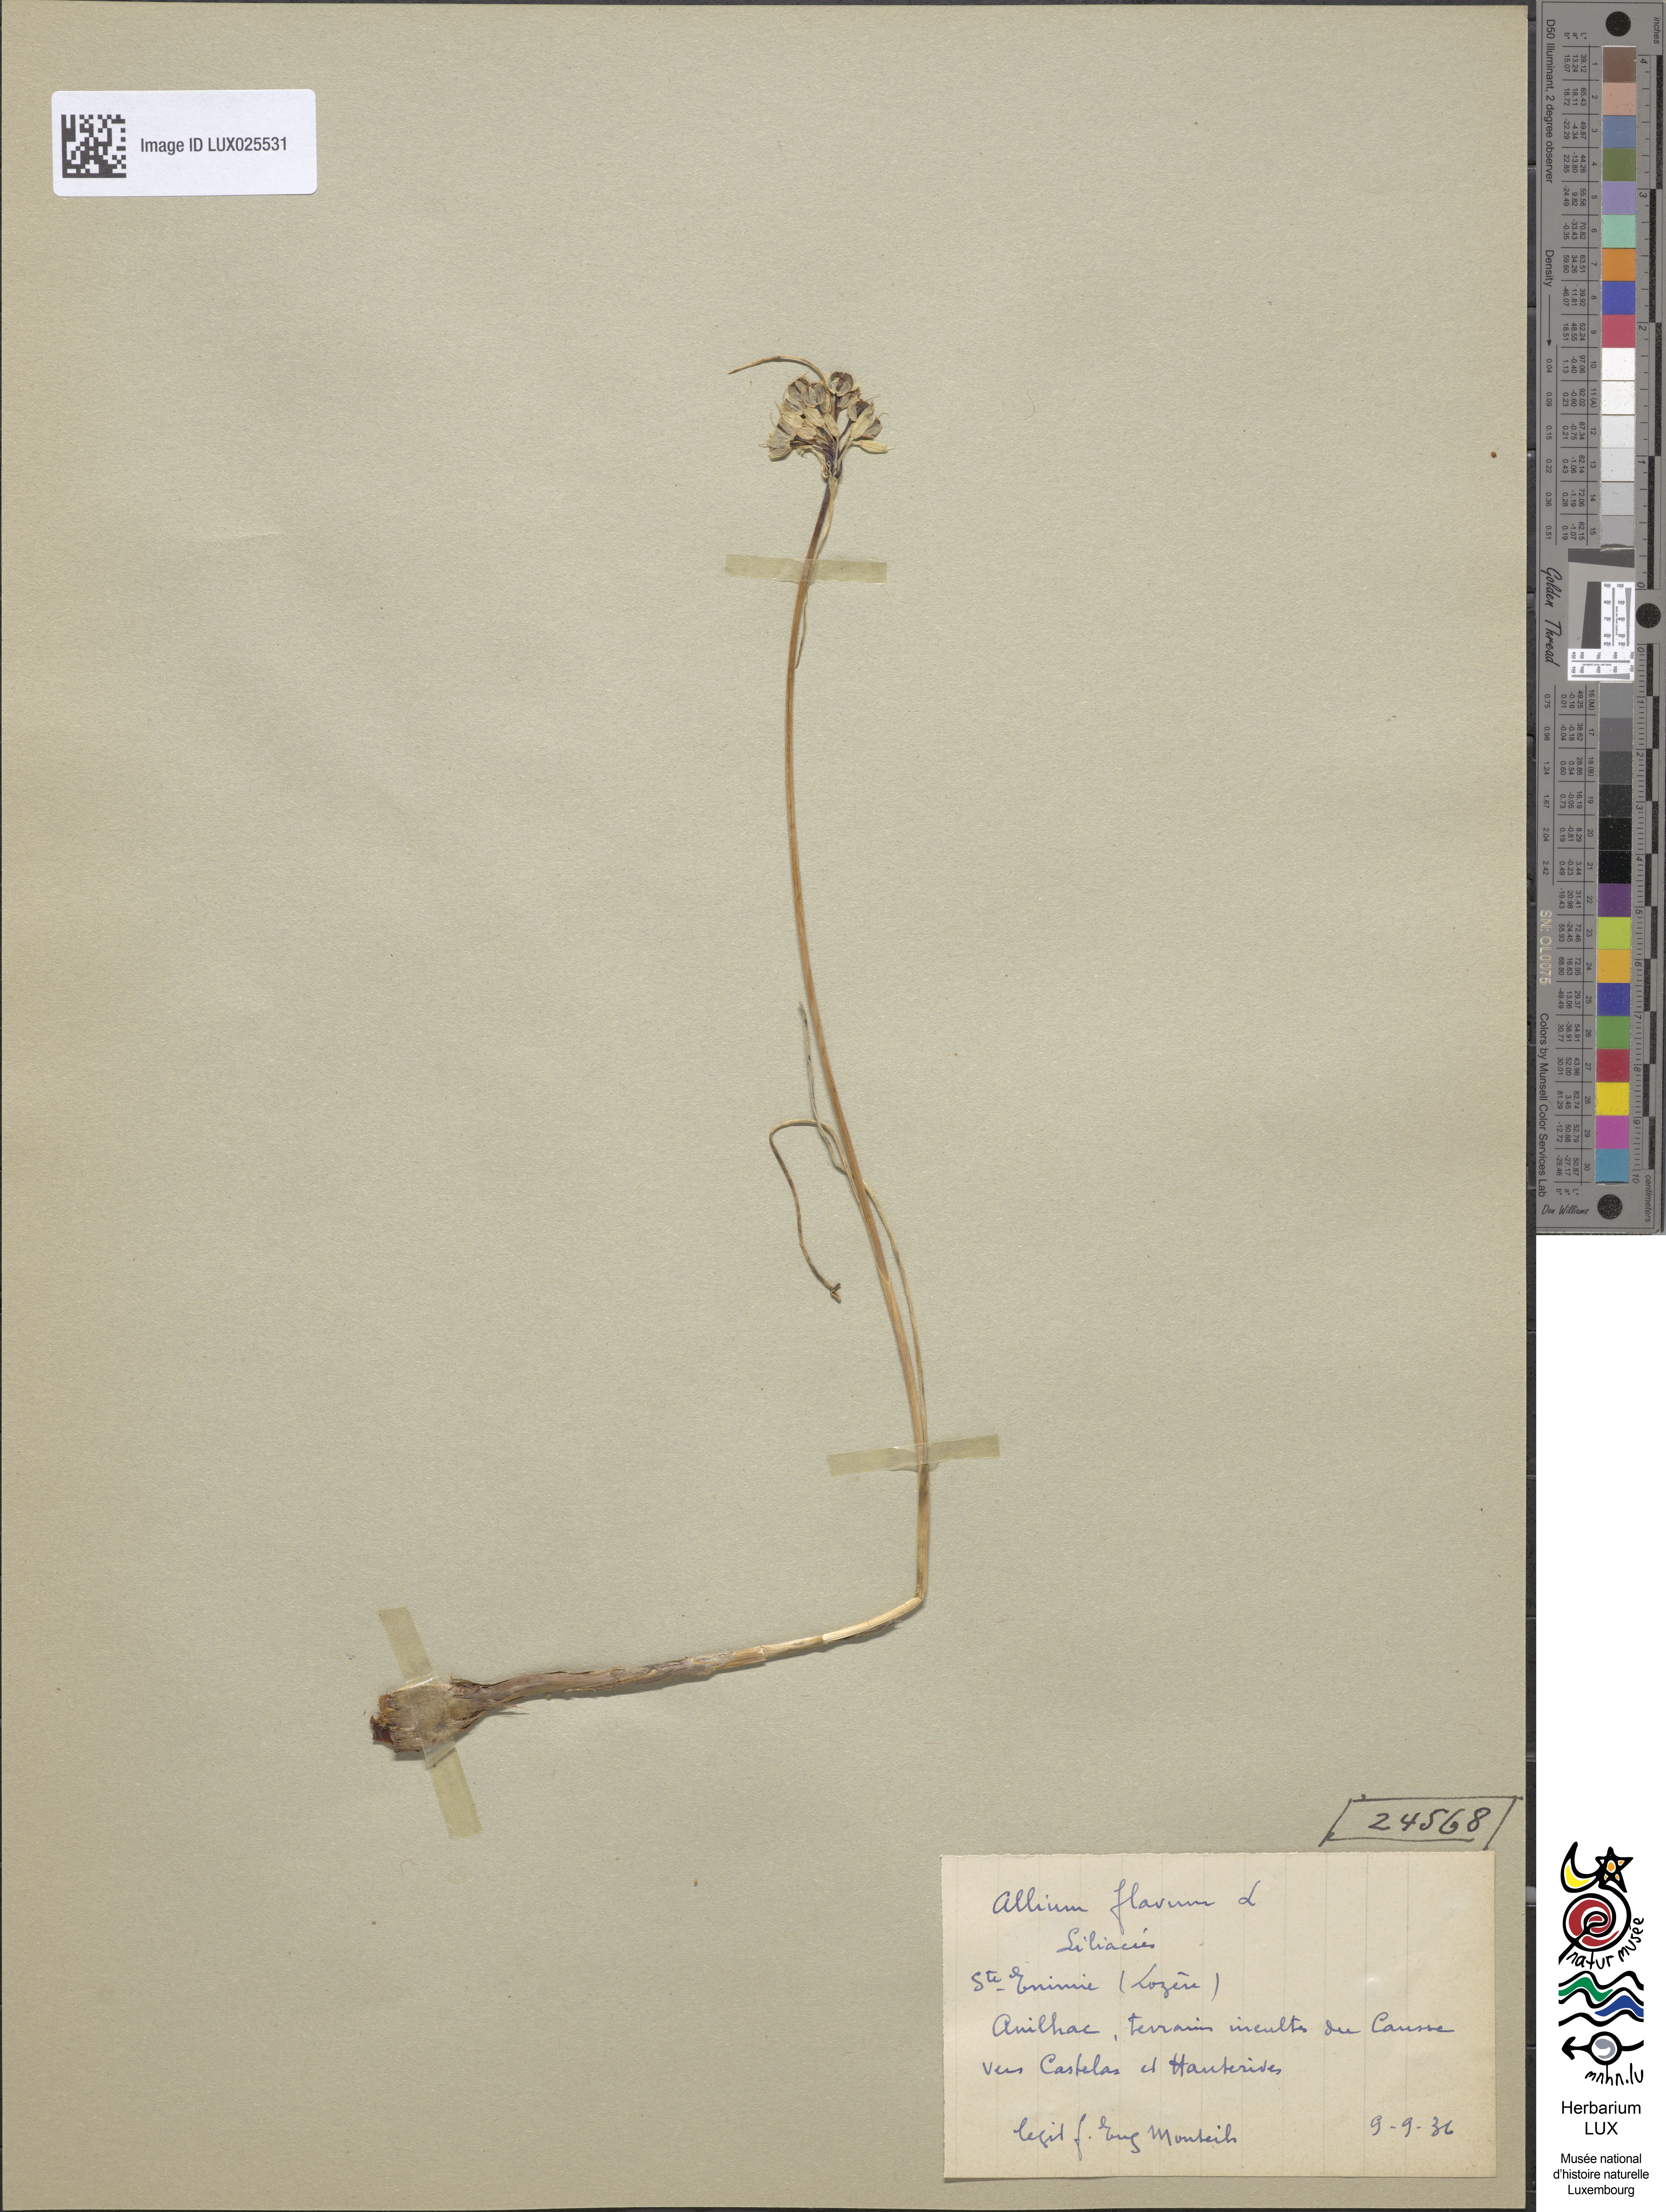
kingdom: Plantae
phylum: Tracheophyta
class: Liliopsida
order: Asparagales
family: Amaryllidaceae
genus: Allium
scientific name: Allium flavum
